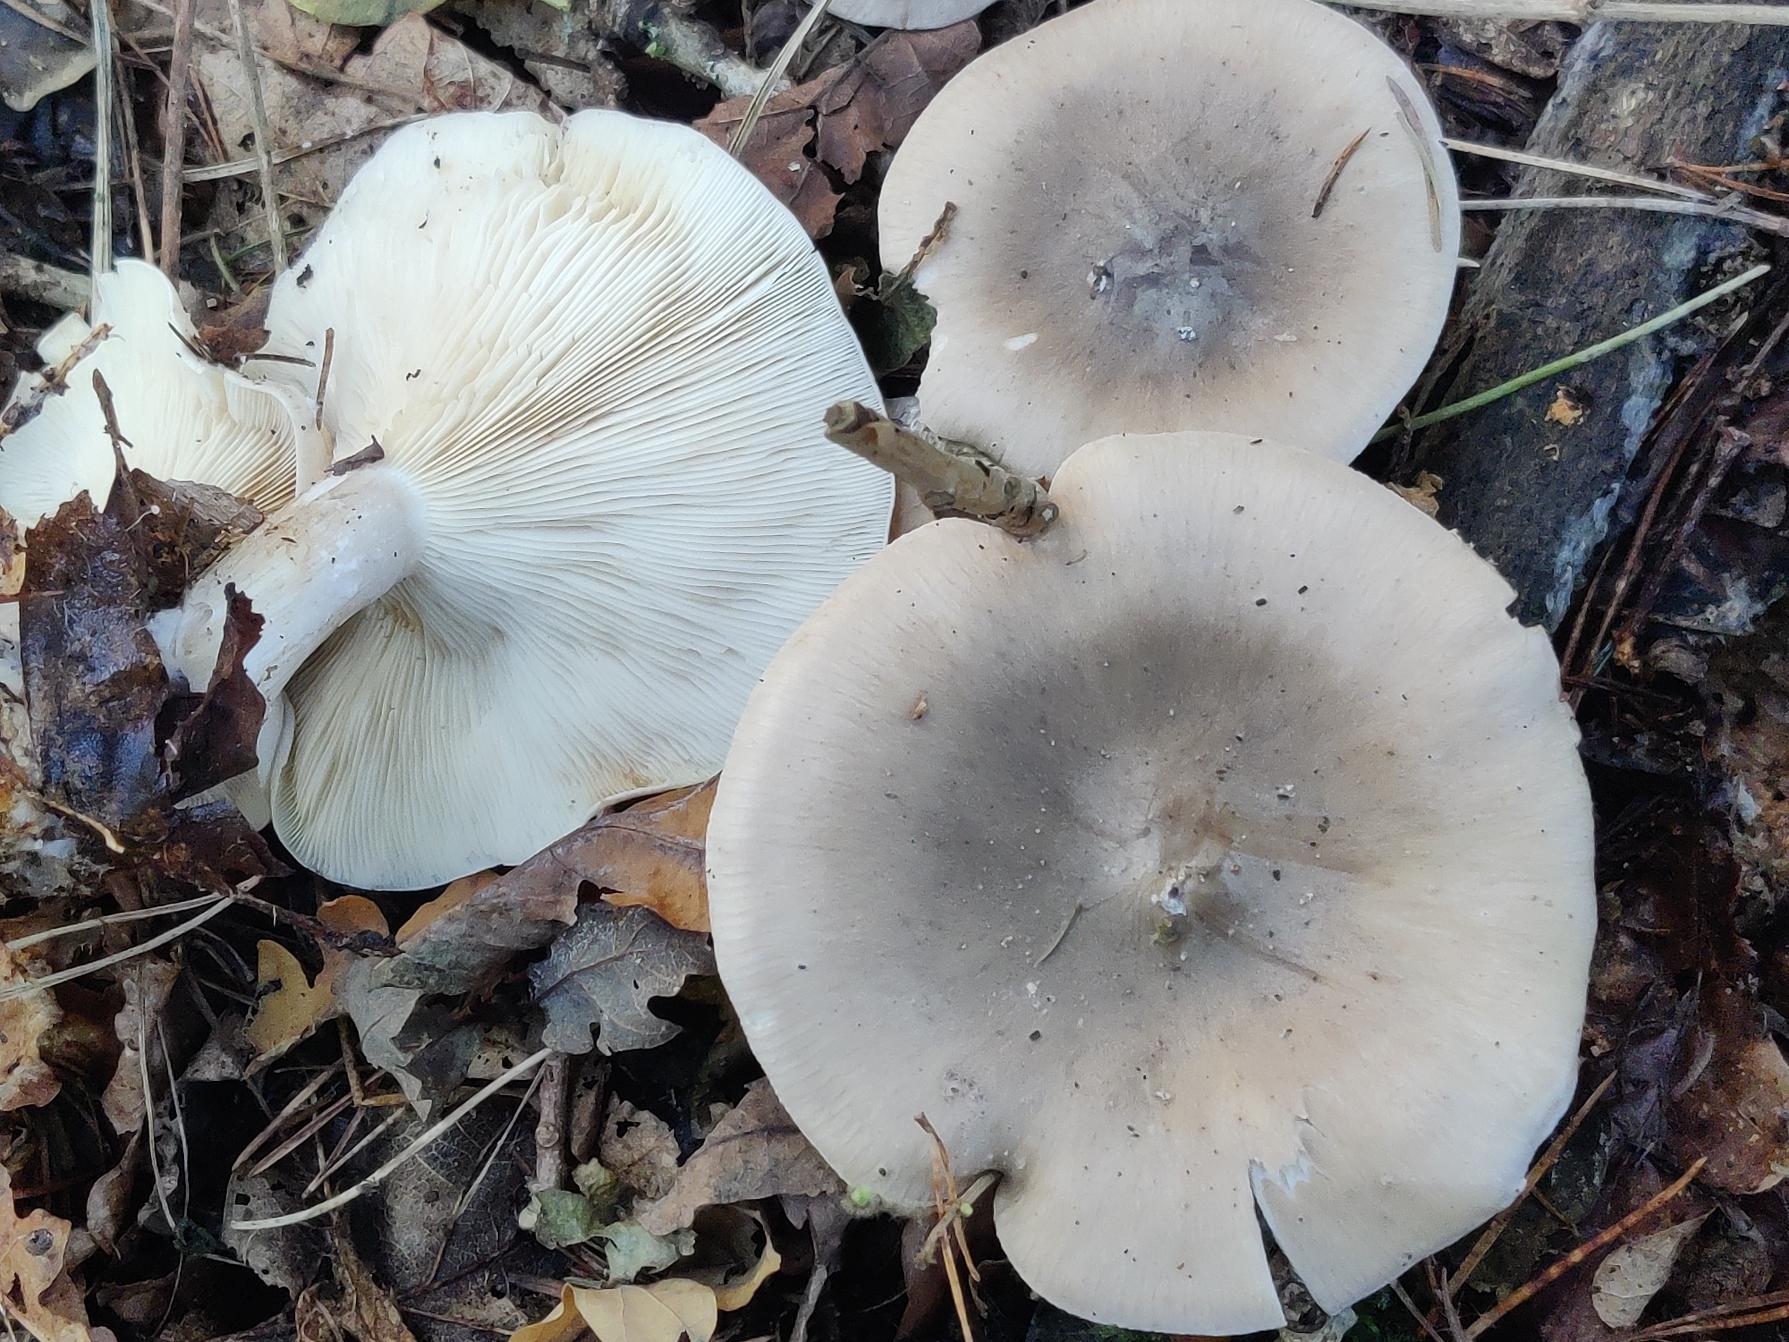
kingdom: Fungi
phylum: Basidiomycota
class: Agaricomycetes
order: Agaricales
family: Tricholomataceae
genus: Clitocybe
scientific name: Clitocybe nebularis
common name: Tåge-tragthat
